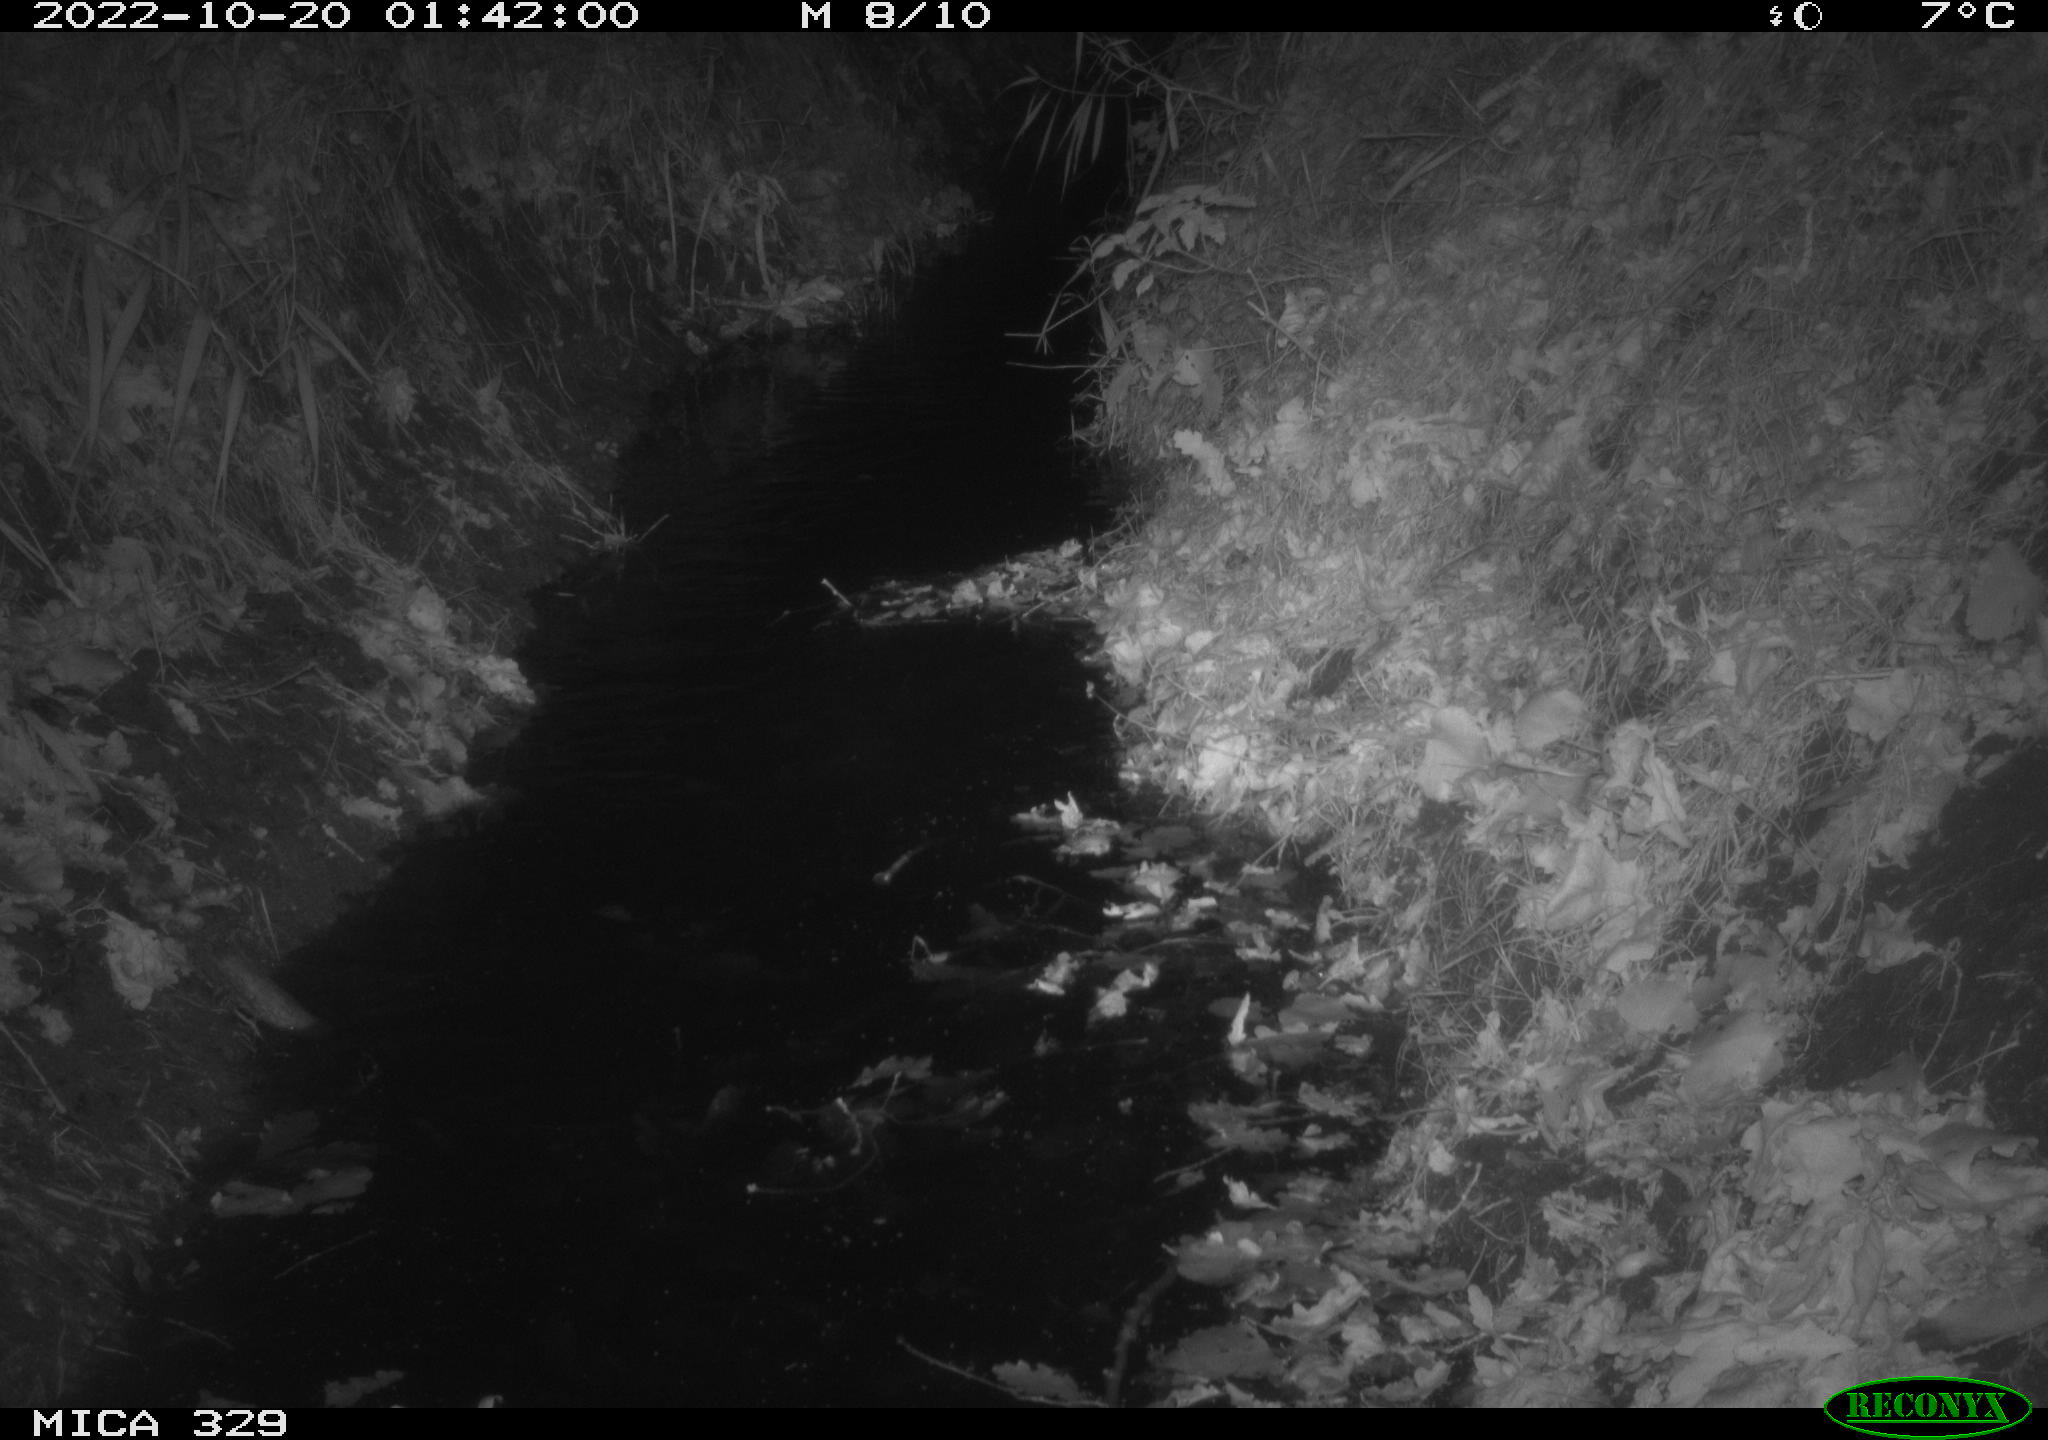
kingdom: Animalia
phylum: Chordata
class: Mammalia
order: Rodentia
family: Cricetidae
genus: Ondatra
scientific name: Ondatra zibethicus
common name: Muskrat
